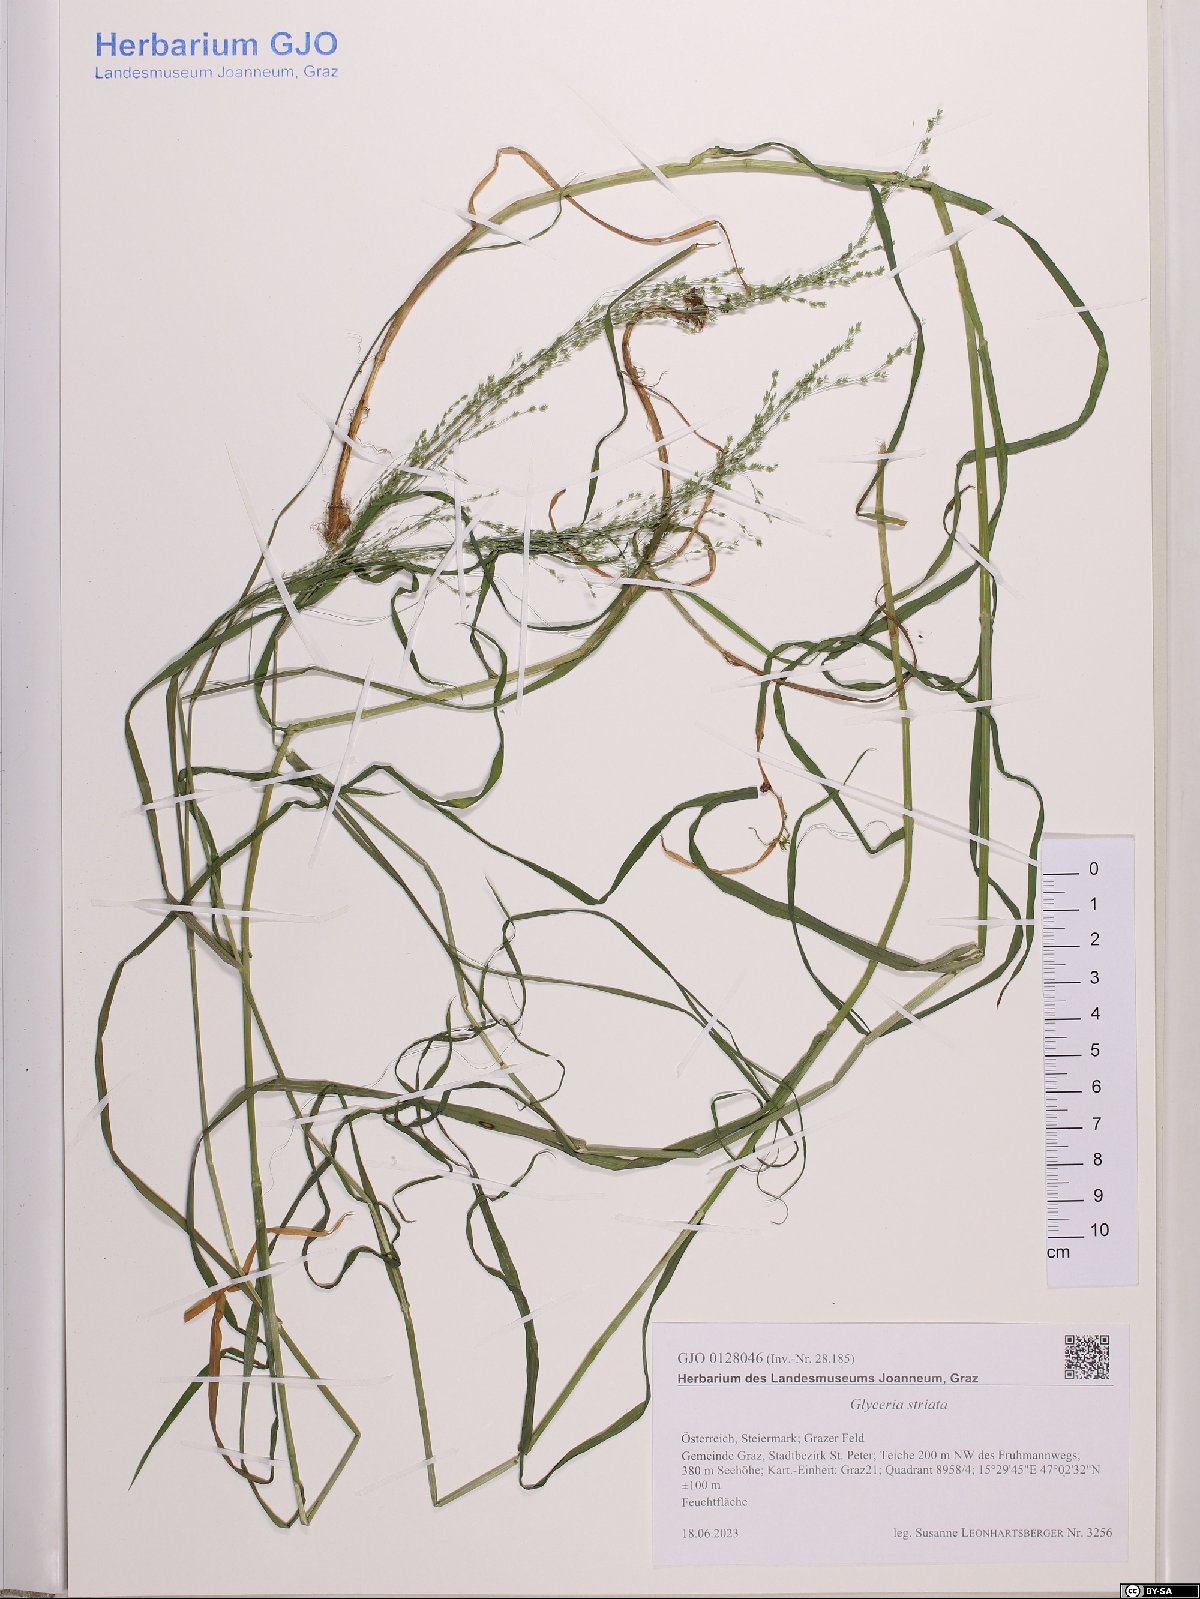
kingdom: Plantae
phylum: Tracheophyta
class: Liliopsida
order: Poales
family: Poaceae
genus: Glyceria
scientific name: Glyceria striata
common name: Fowl manna grass
